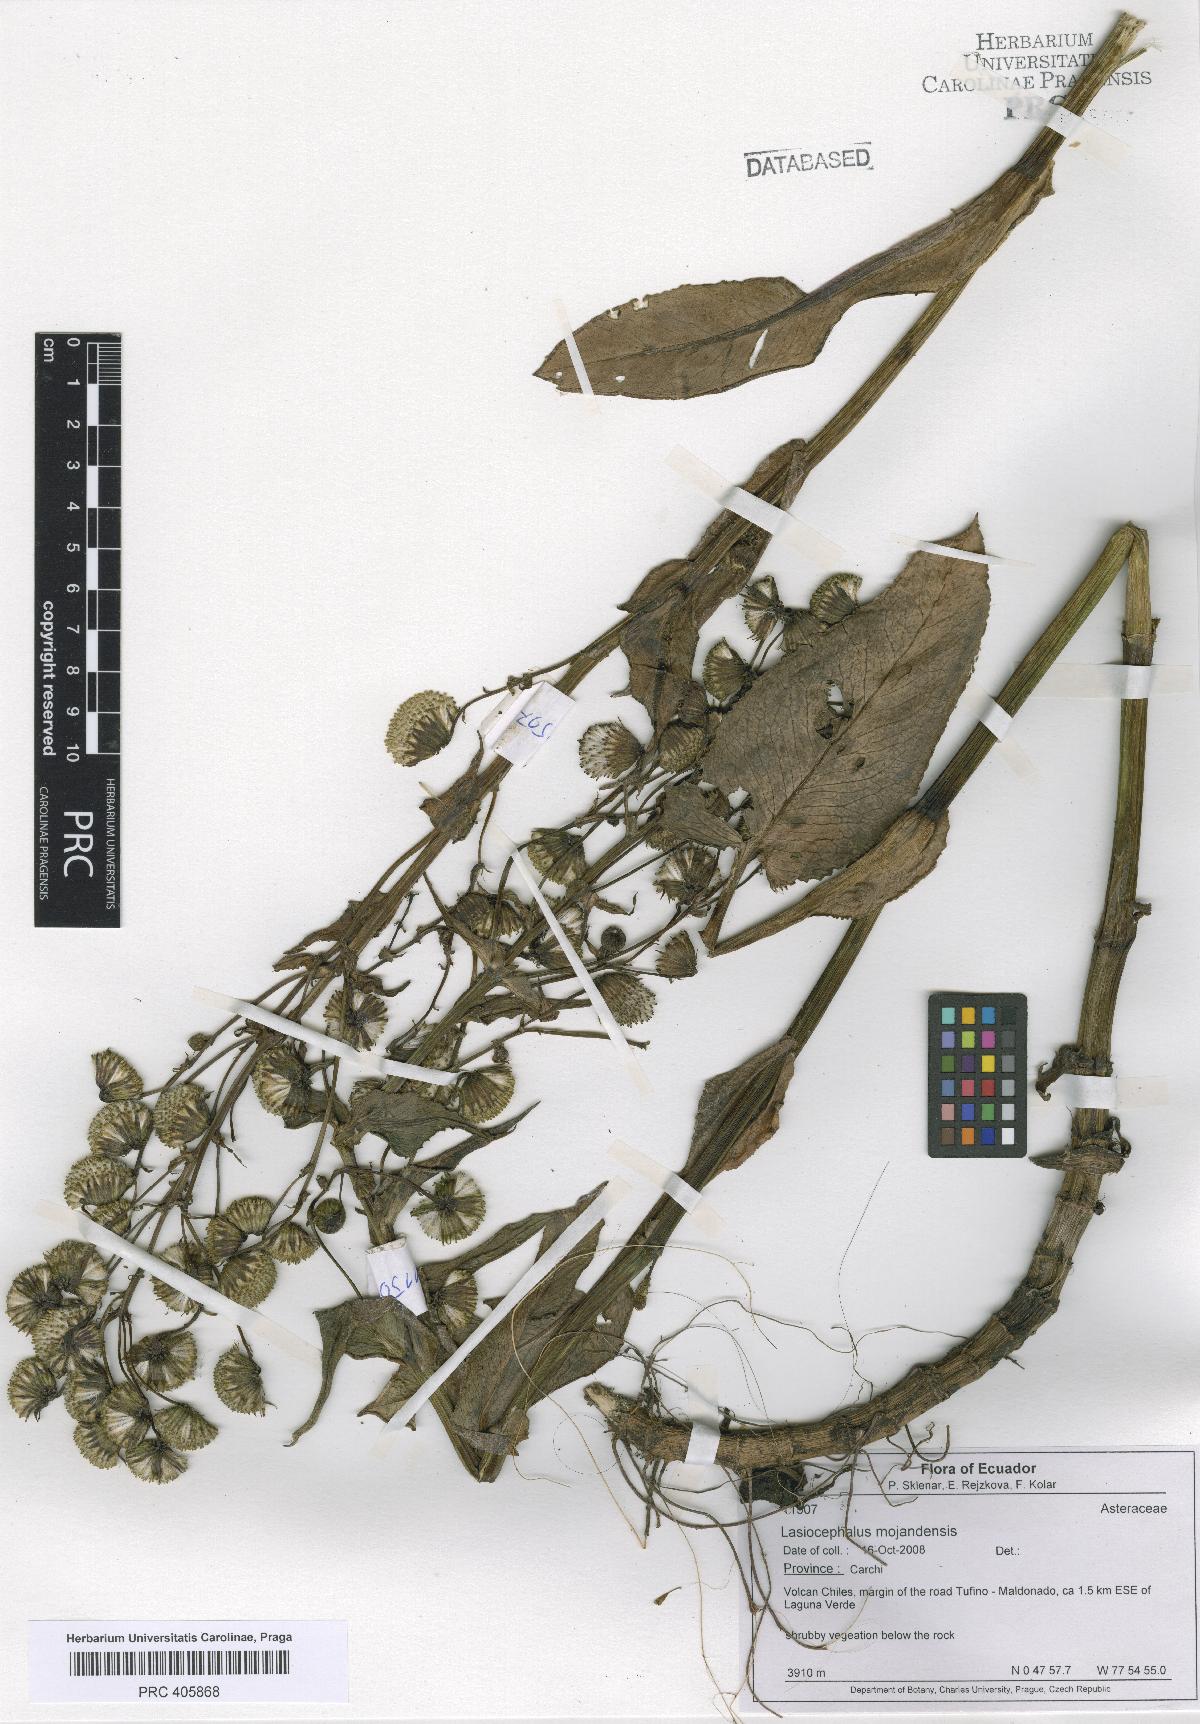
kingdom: Plantae
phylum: Tracheophyta
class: Magnoliopsida
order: Asterales
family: Asteraceae
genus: Aetheolaena
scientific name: Aetheolaena mojandensis
